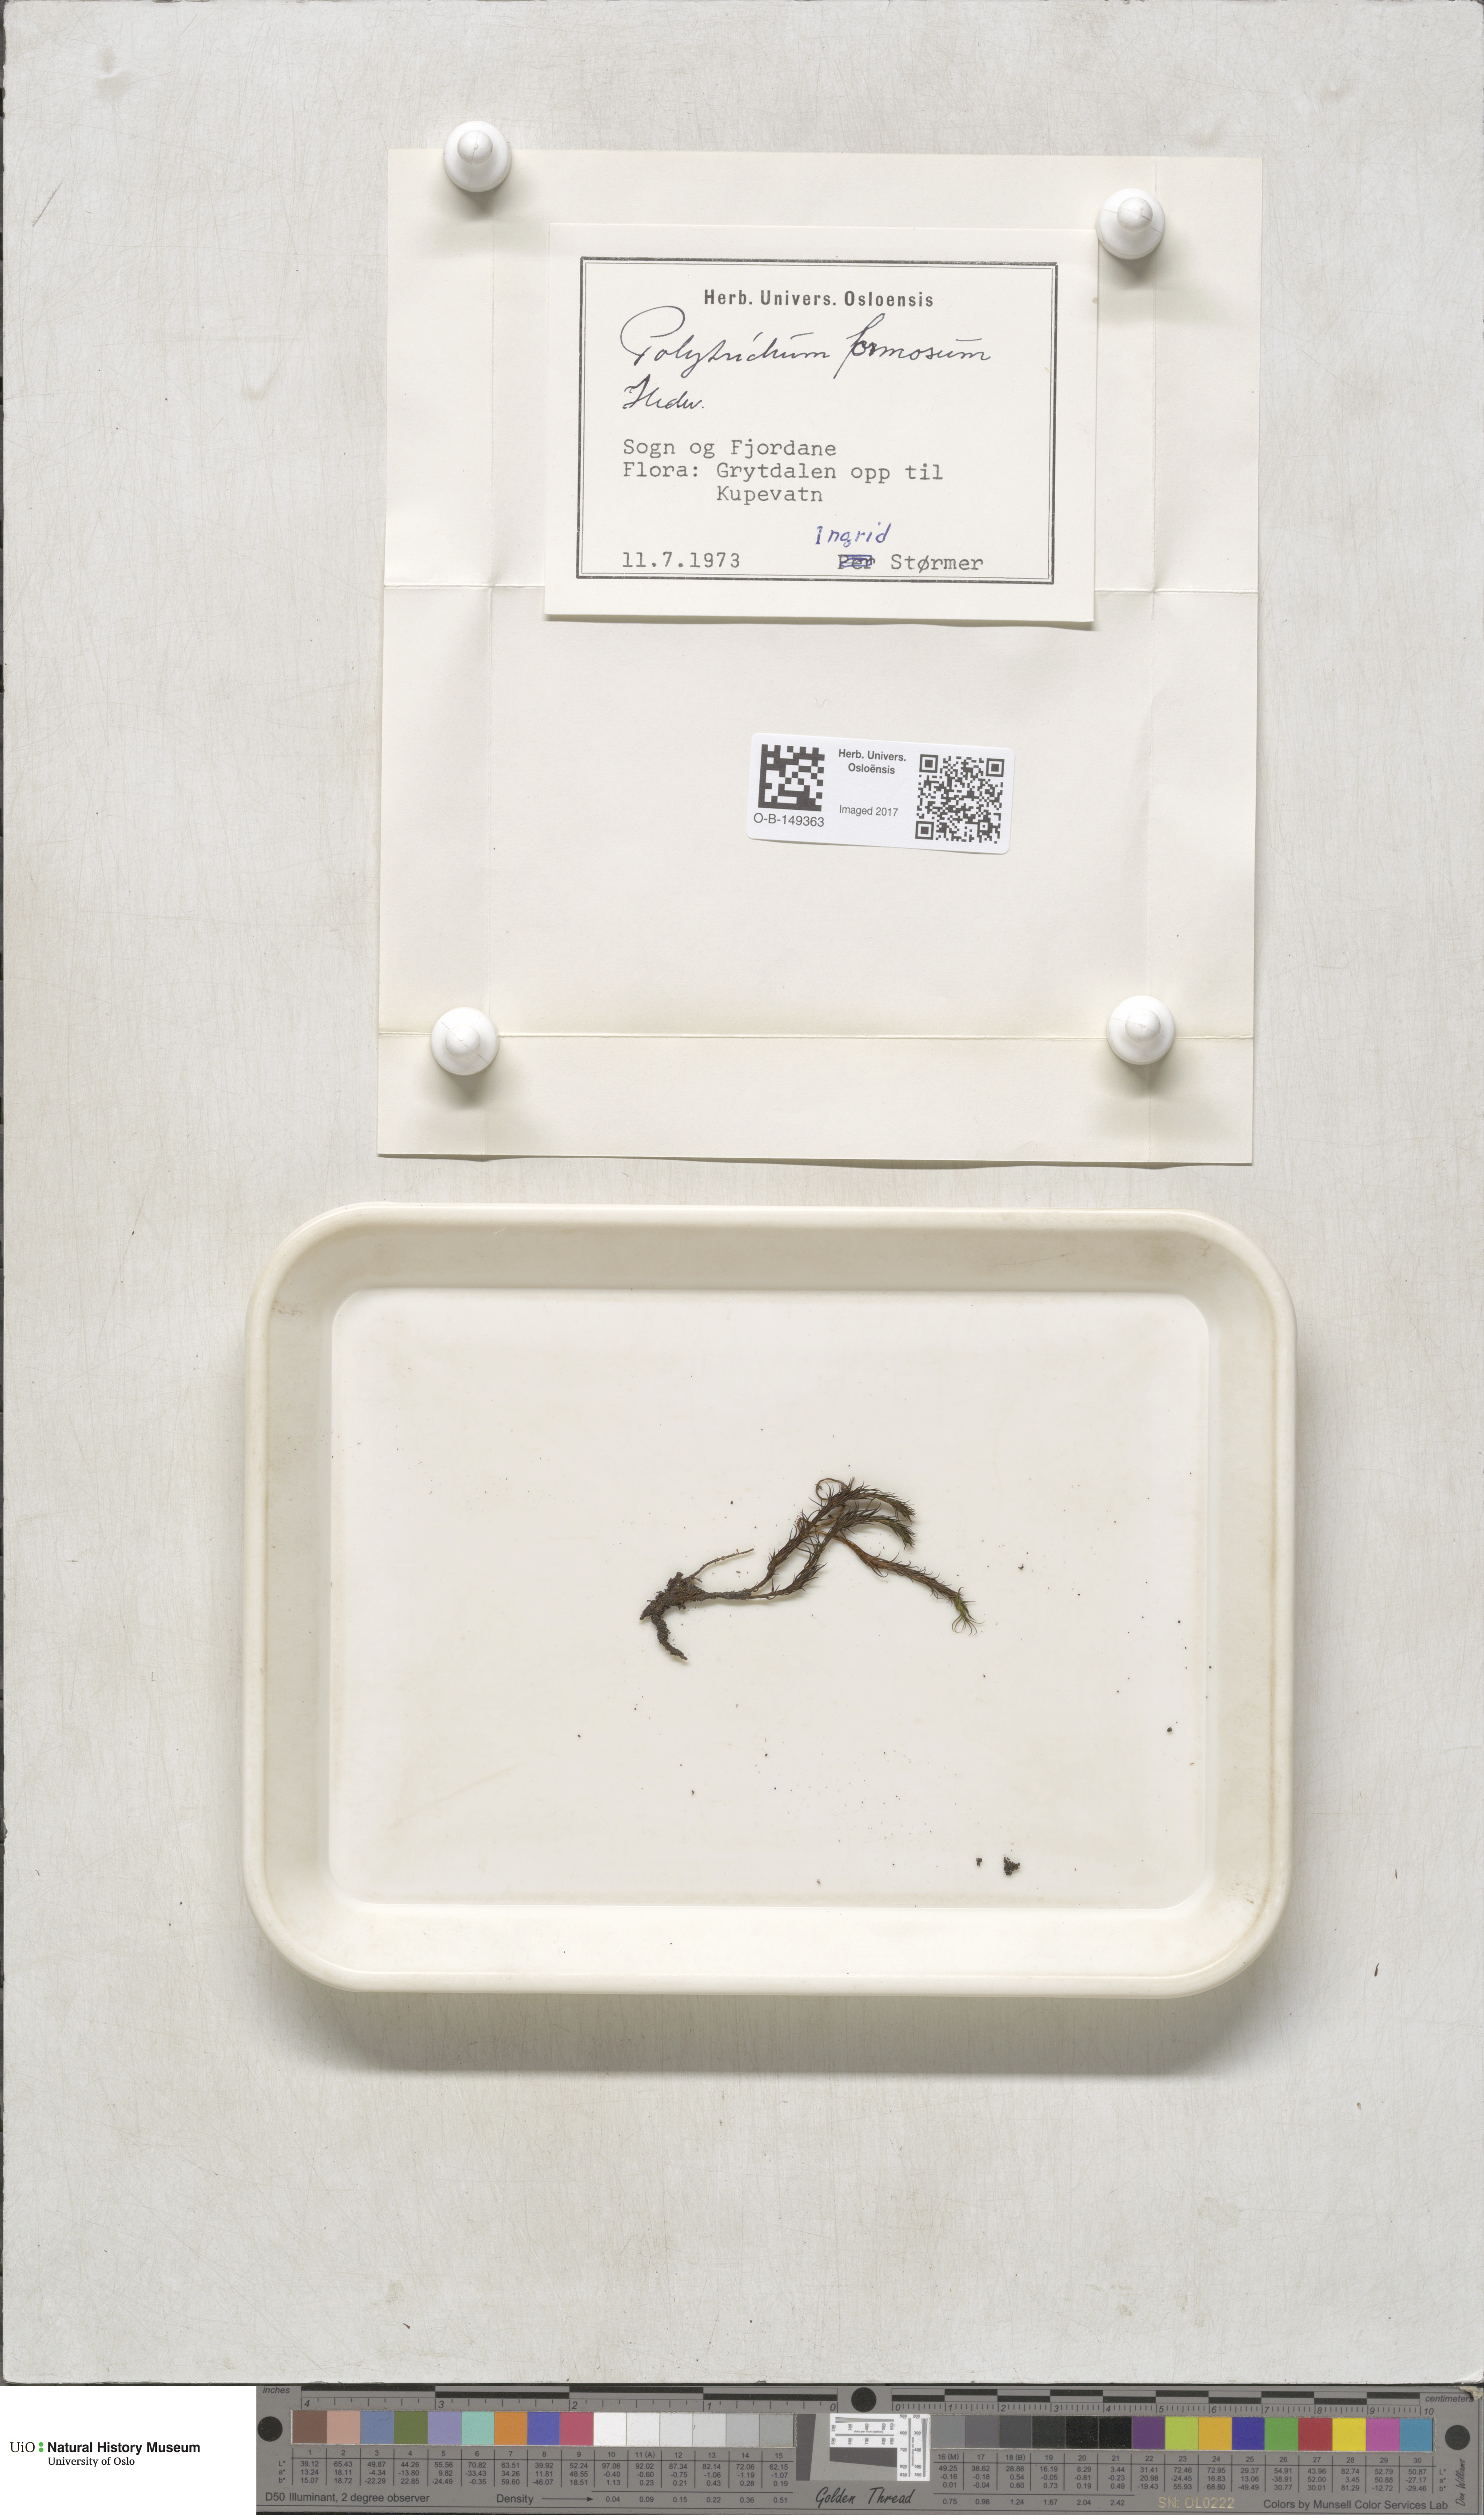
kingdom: Plantae
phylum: Bryophyta
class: Polytrichopsida
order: Polytrichales
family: Polytrichaceae
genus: Polytrichum
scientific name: Polytrichum formosum
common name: Bank haircap moss
